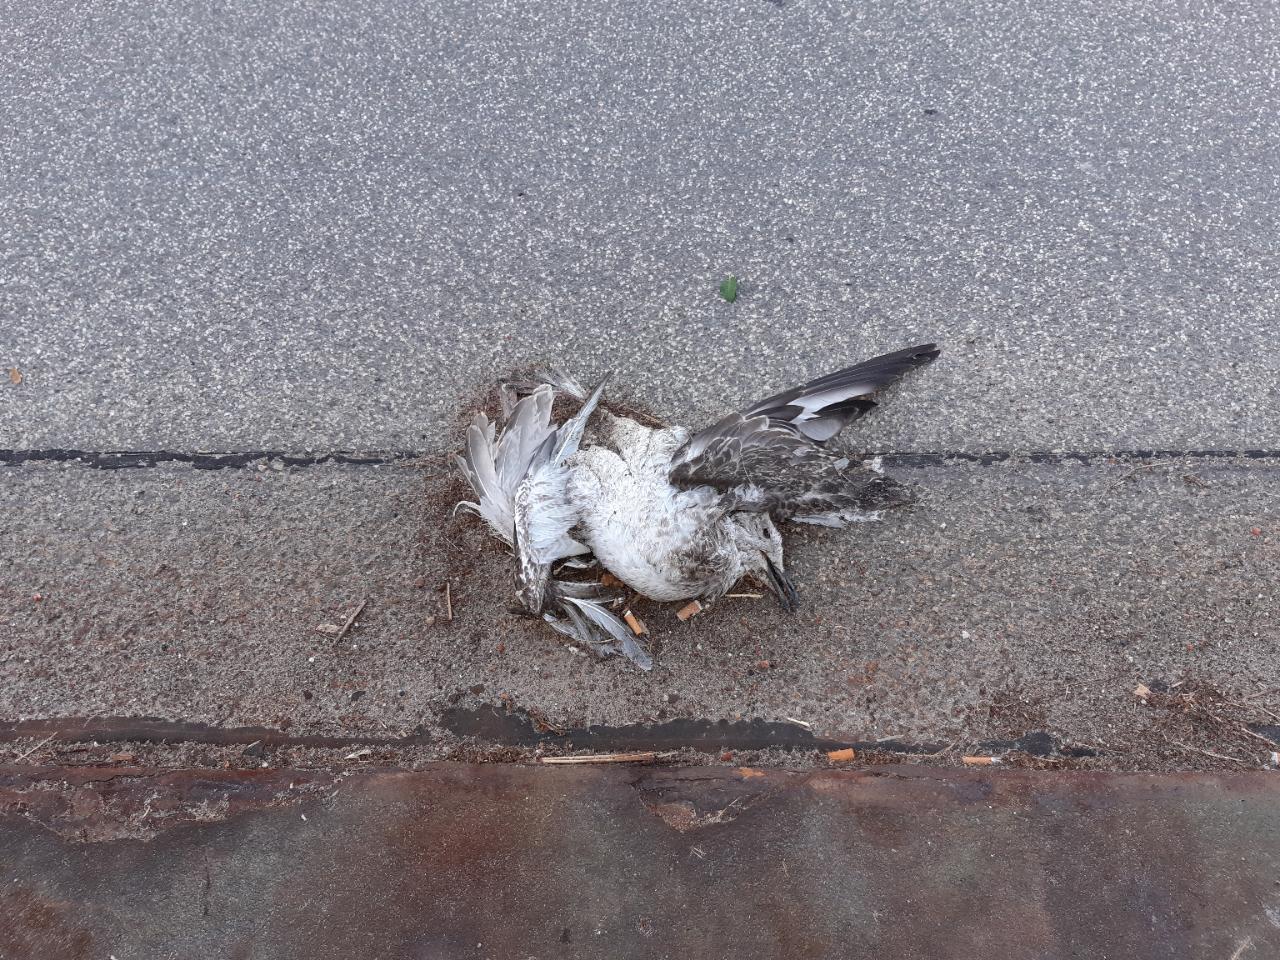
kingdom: Animalia
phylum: Chordata
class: Aves
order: Charadriiformes
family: Laridae
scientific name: Laridae
